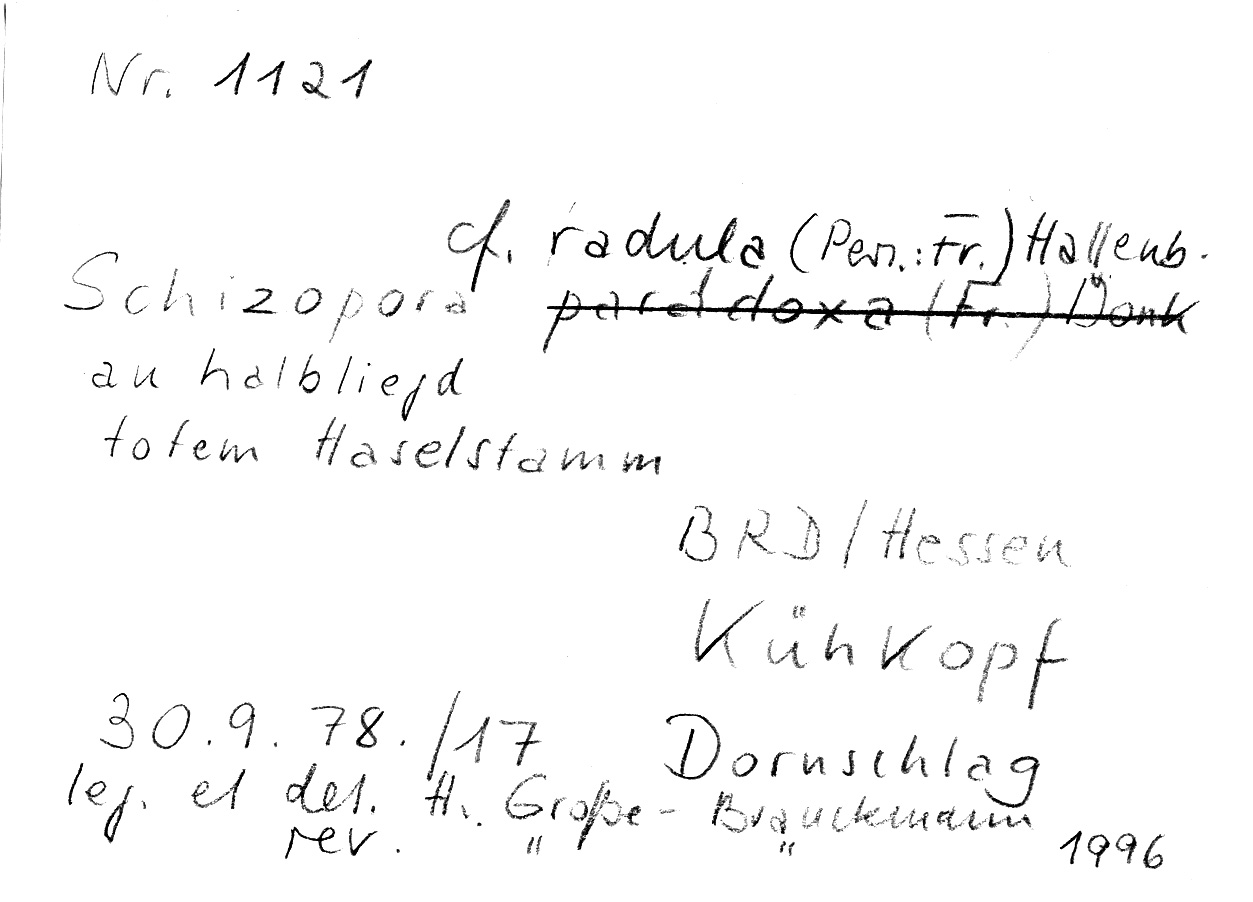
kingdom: Plantae
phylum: Tracheophyta
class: Magnoliopsida
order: Fagales
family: Betulaceae
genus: Corylus
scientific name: Corylus
